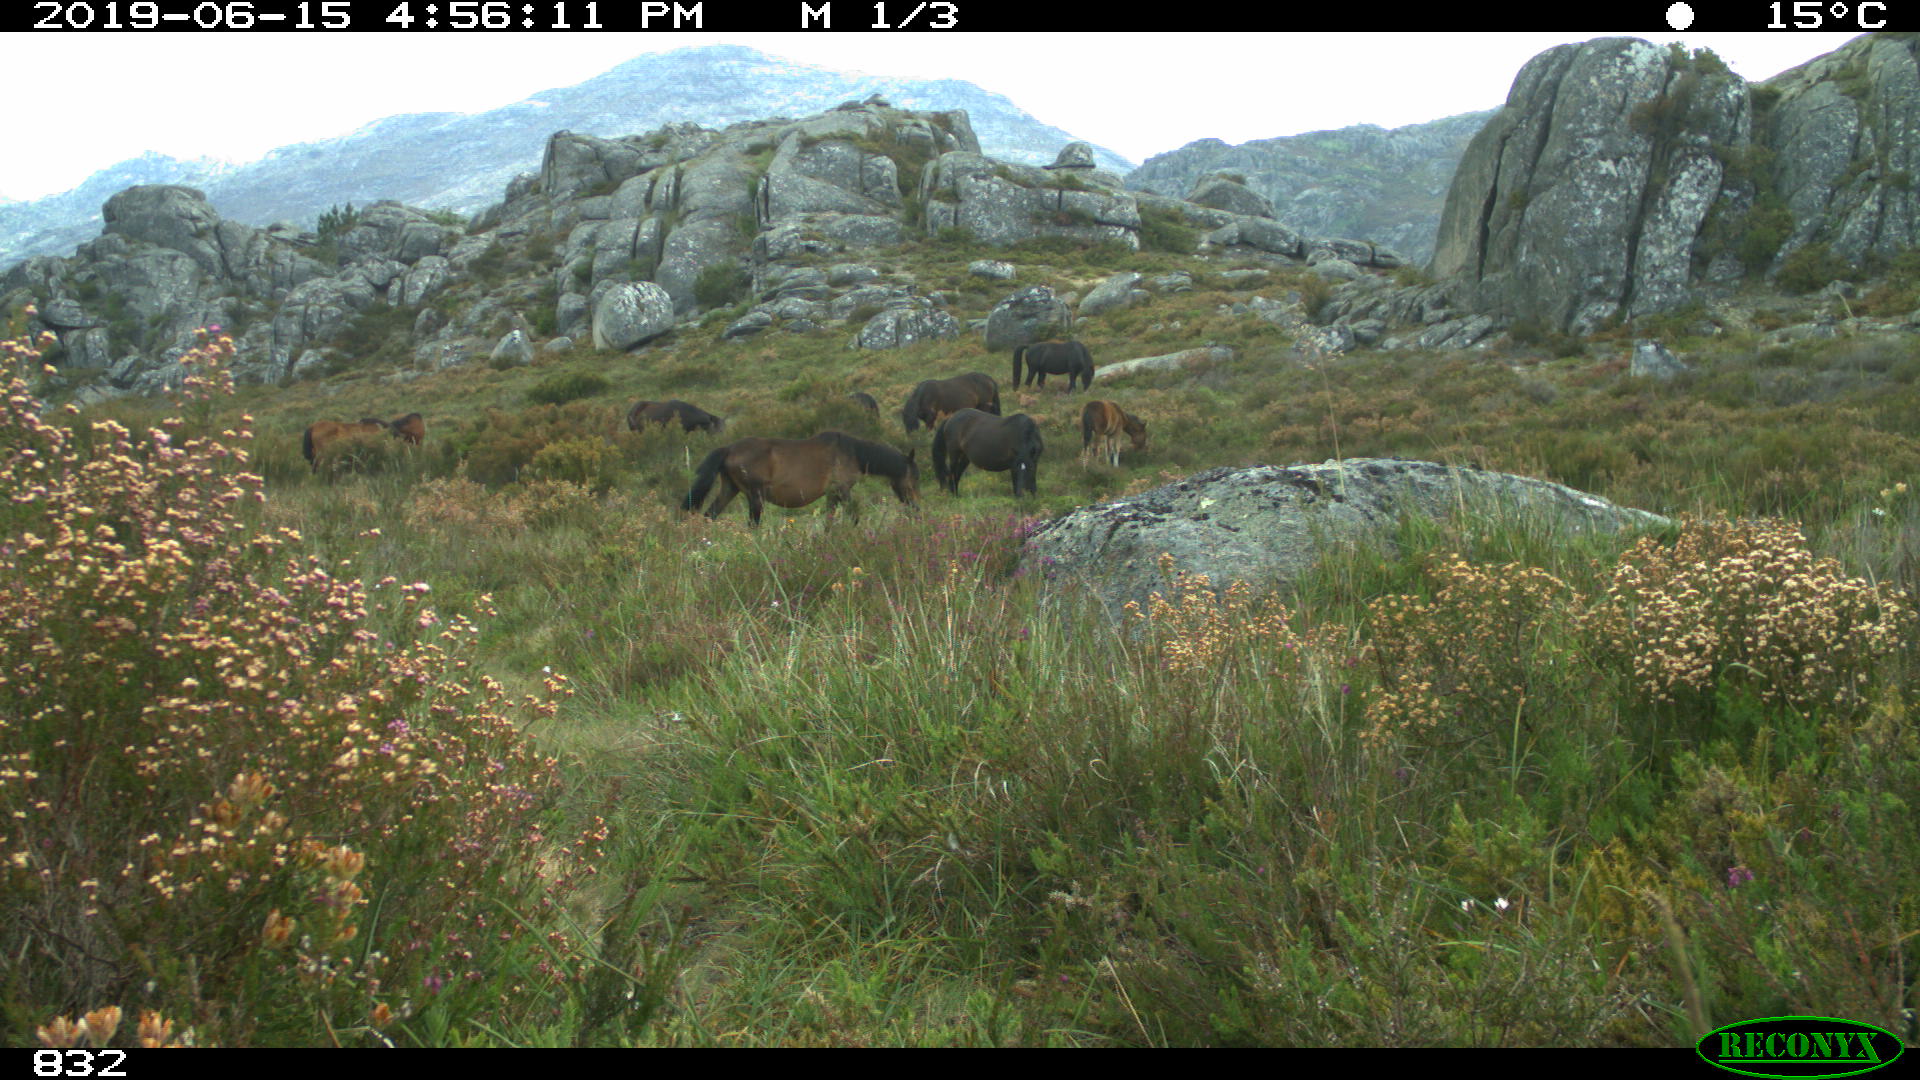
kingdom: Animalia
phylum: Chordata
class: Mammalia
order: Perissodactyla
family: Equidae
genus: Equus
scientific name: Equus caballus
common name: Horse
